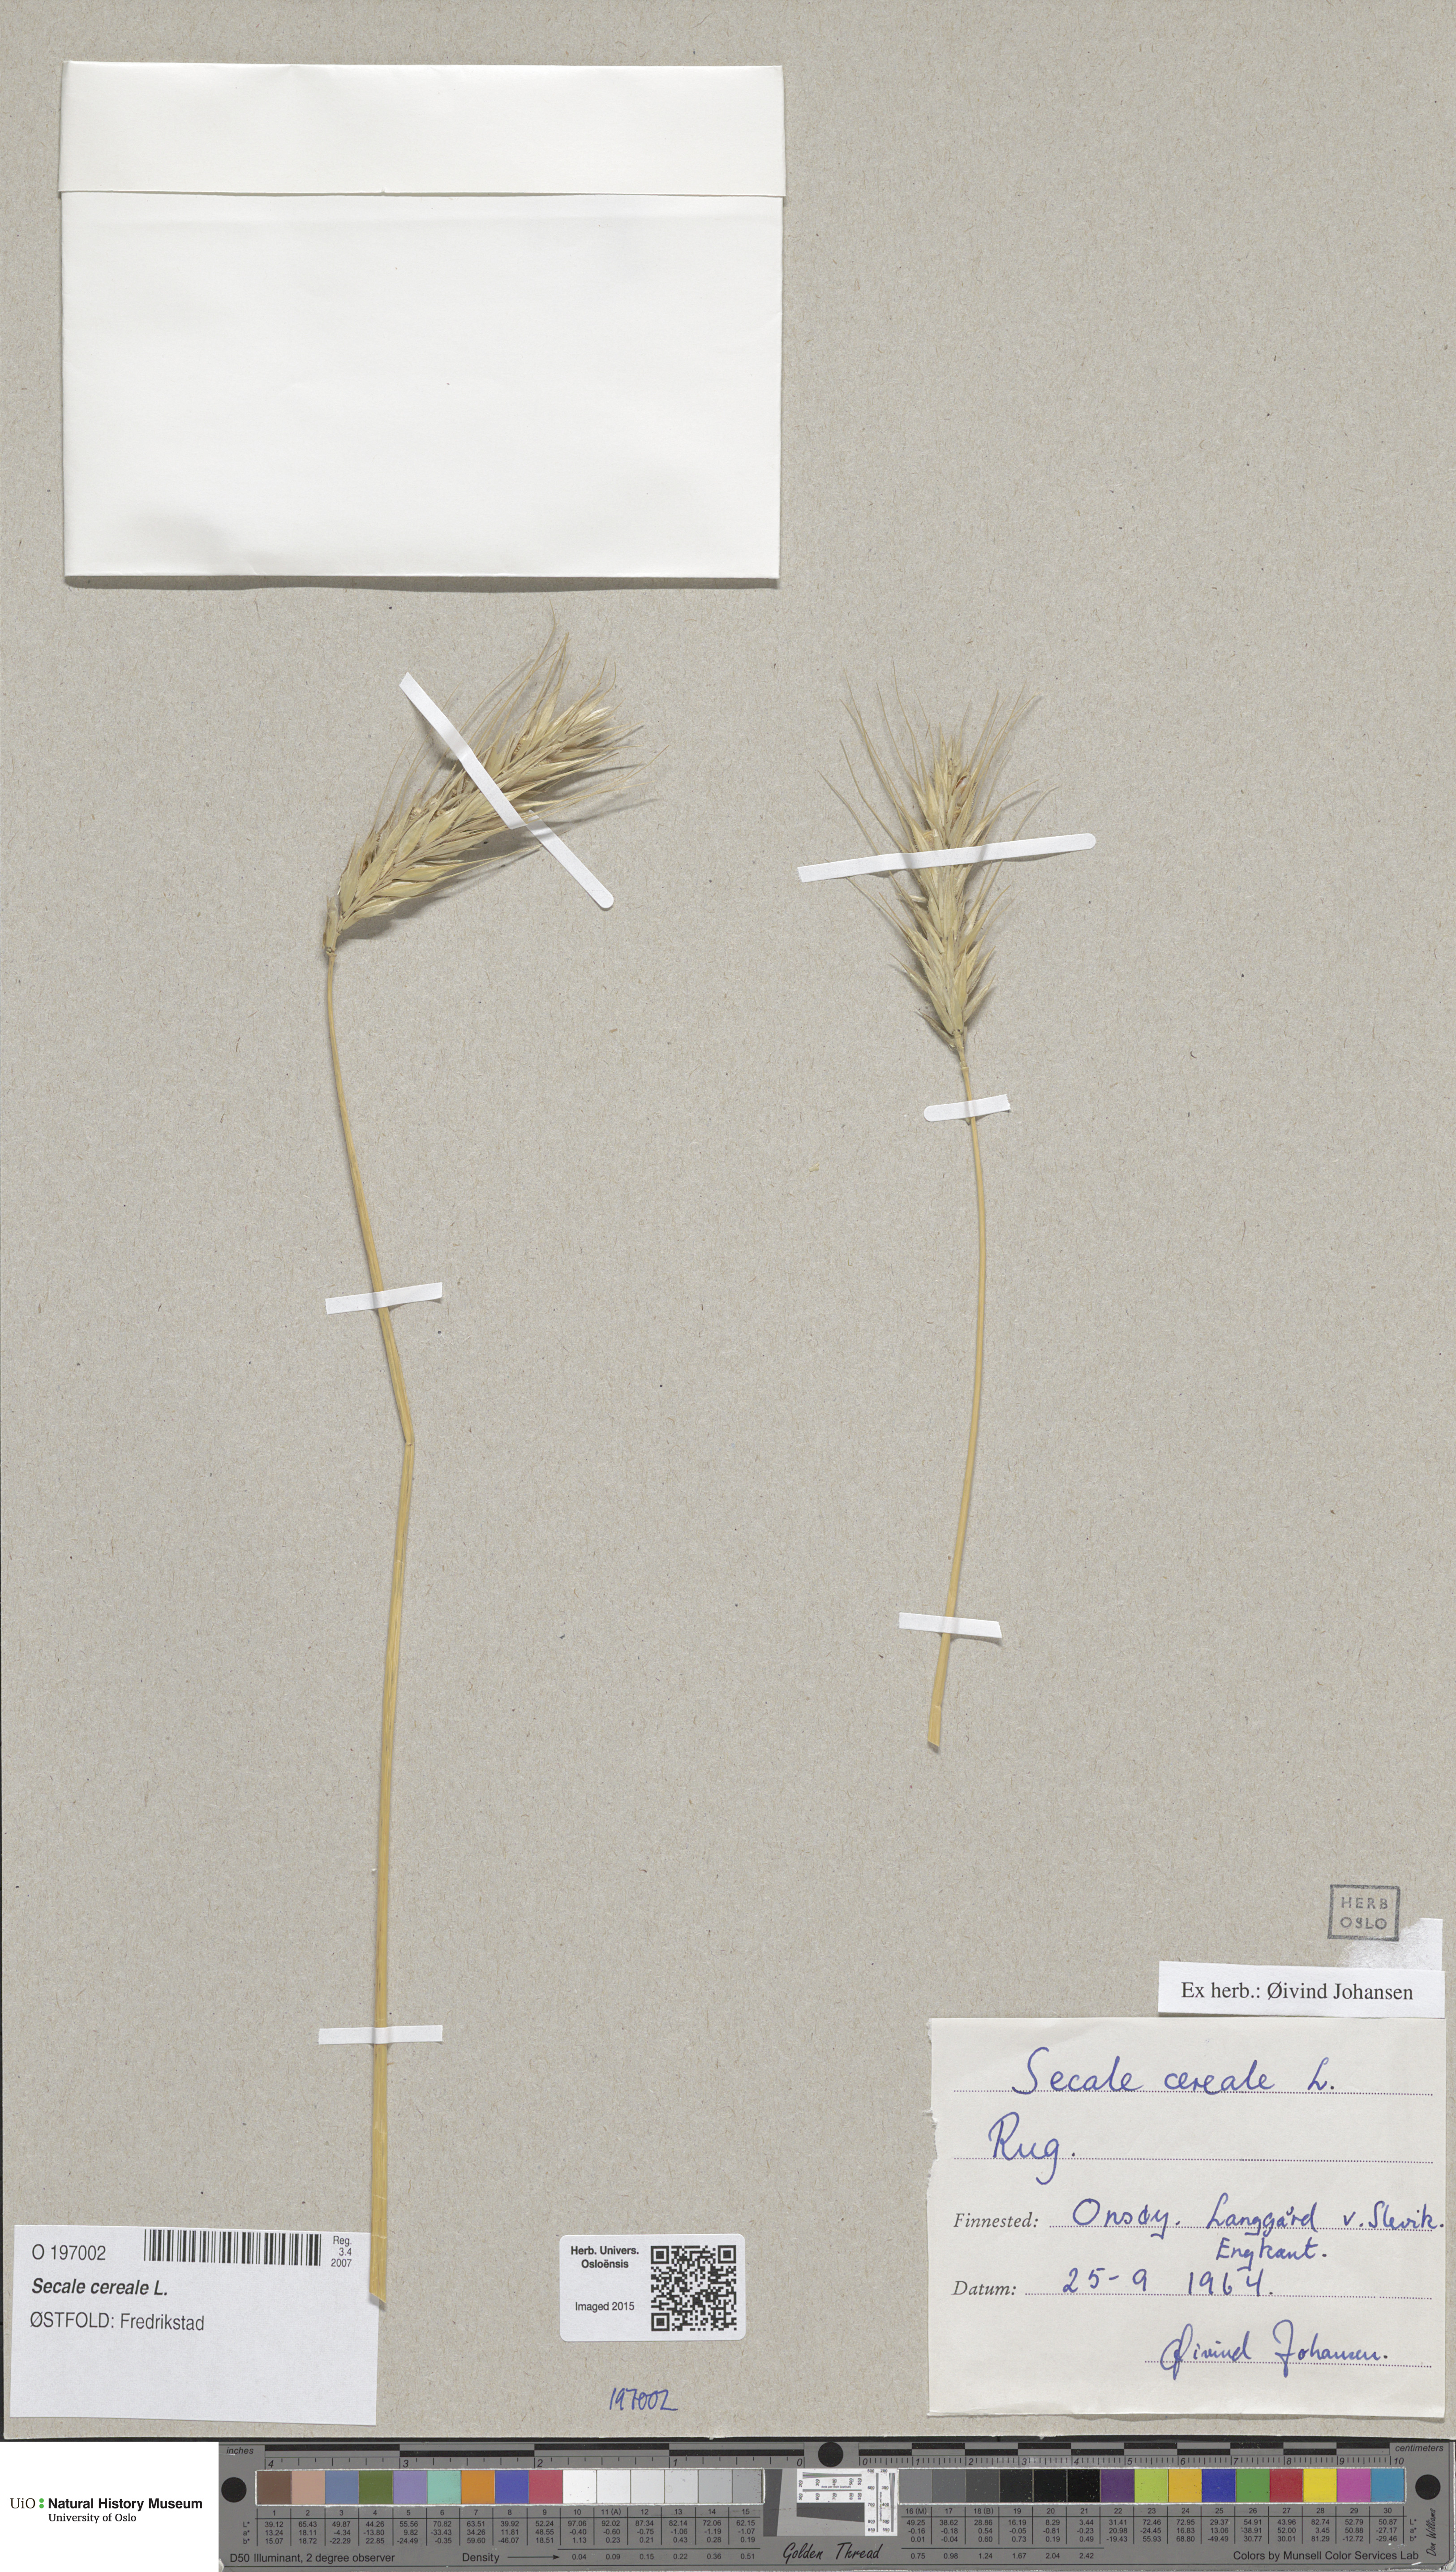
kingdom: Plantae
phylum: Tracheophyta
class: Liliopsida
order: Poales
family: Poaceae
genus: Secale
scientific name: Secale cereale
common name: Rye
